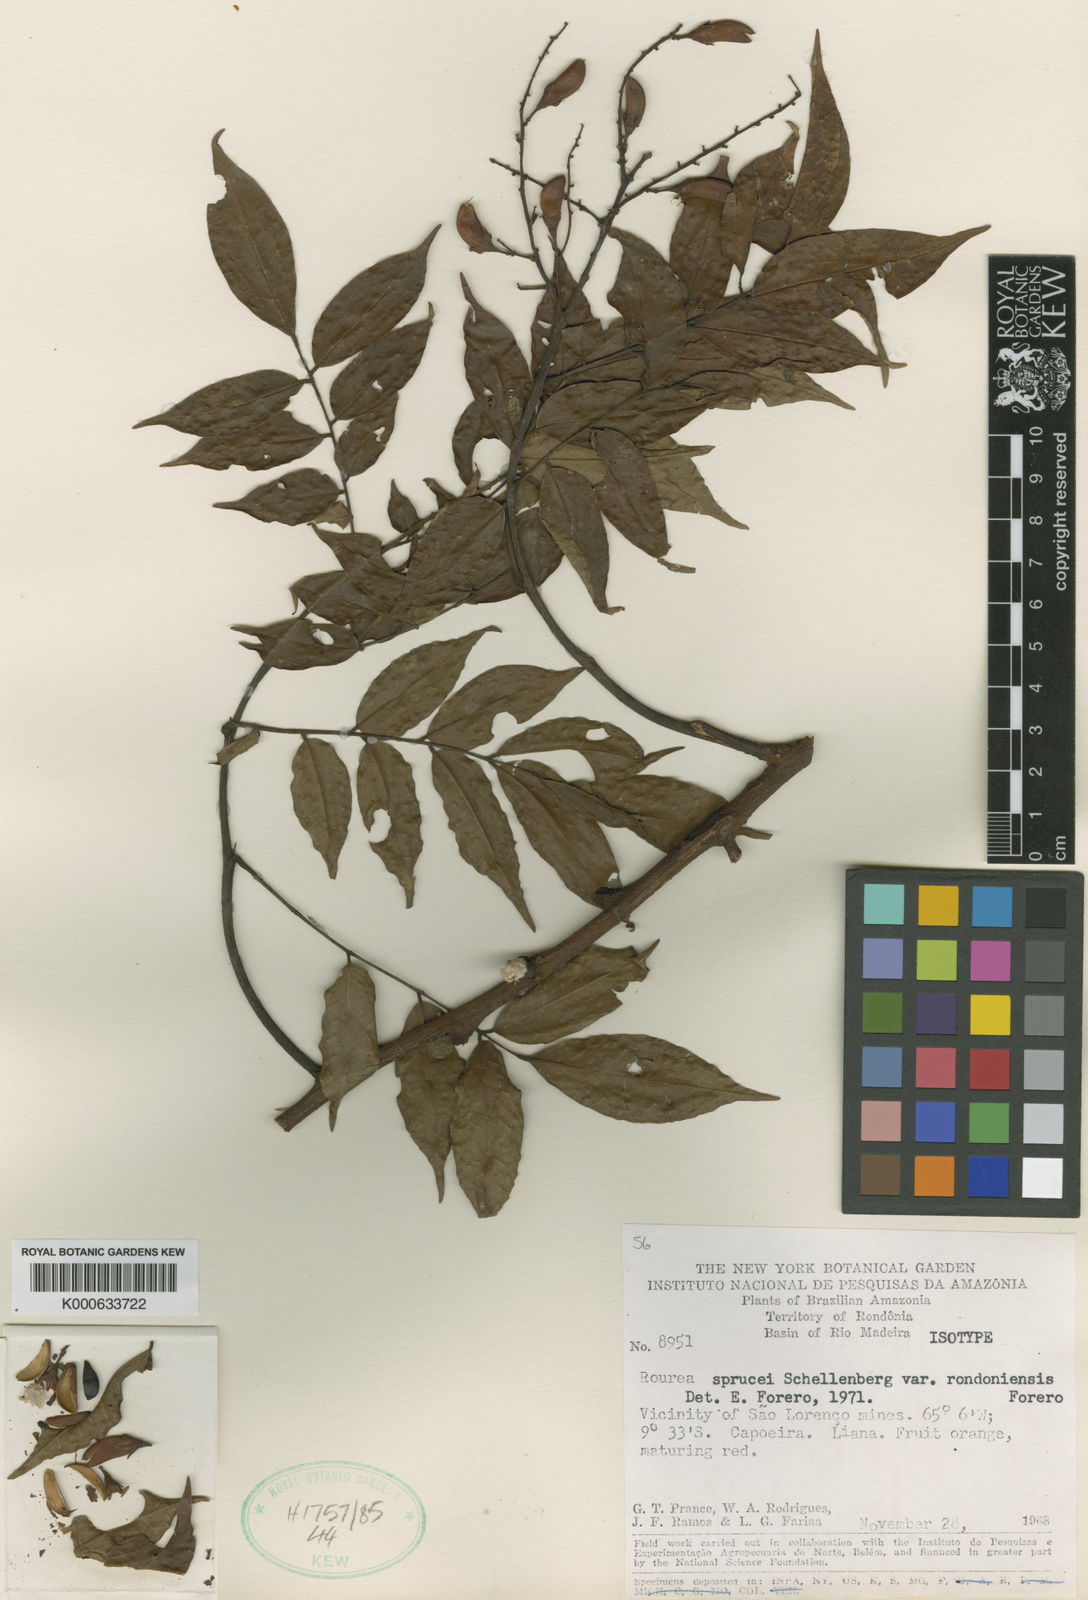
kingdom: Plantae
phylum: Tracheophyta
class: Magnoliopsida
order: Oxalidales
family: Connaraceae
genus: Rourea
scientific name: Rourea sprucei
